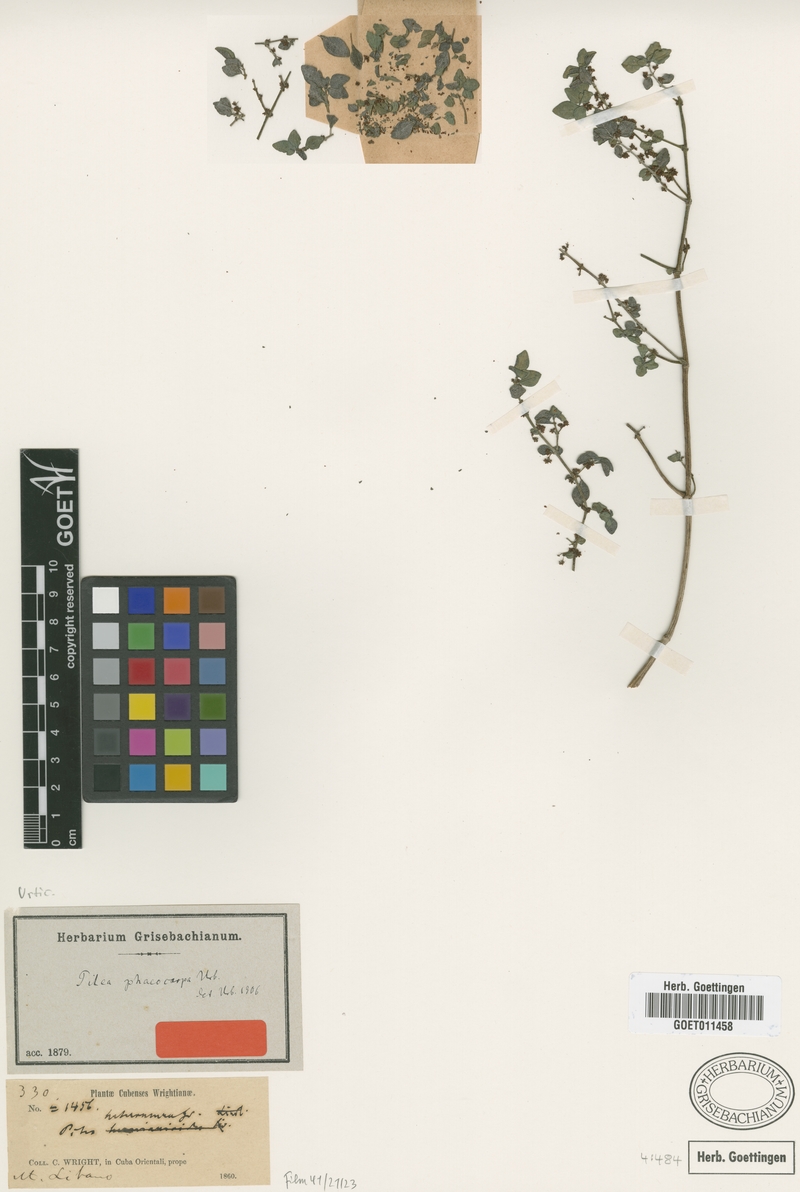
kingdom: Plantae
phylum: Tracheophyta
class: Magnoliopsida
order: Rosales
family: Urticaceae
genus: Pilea
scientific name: Pilea phaeocarpa
